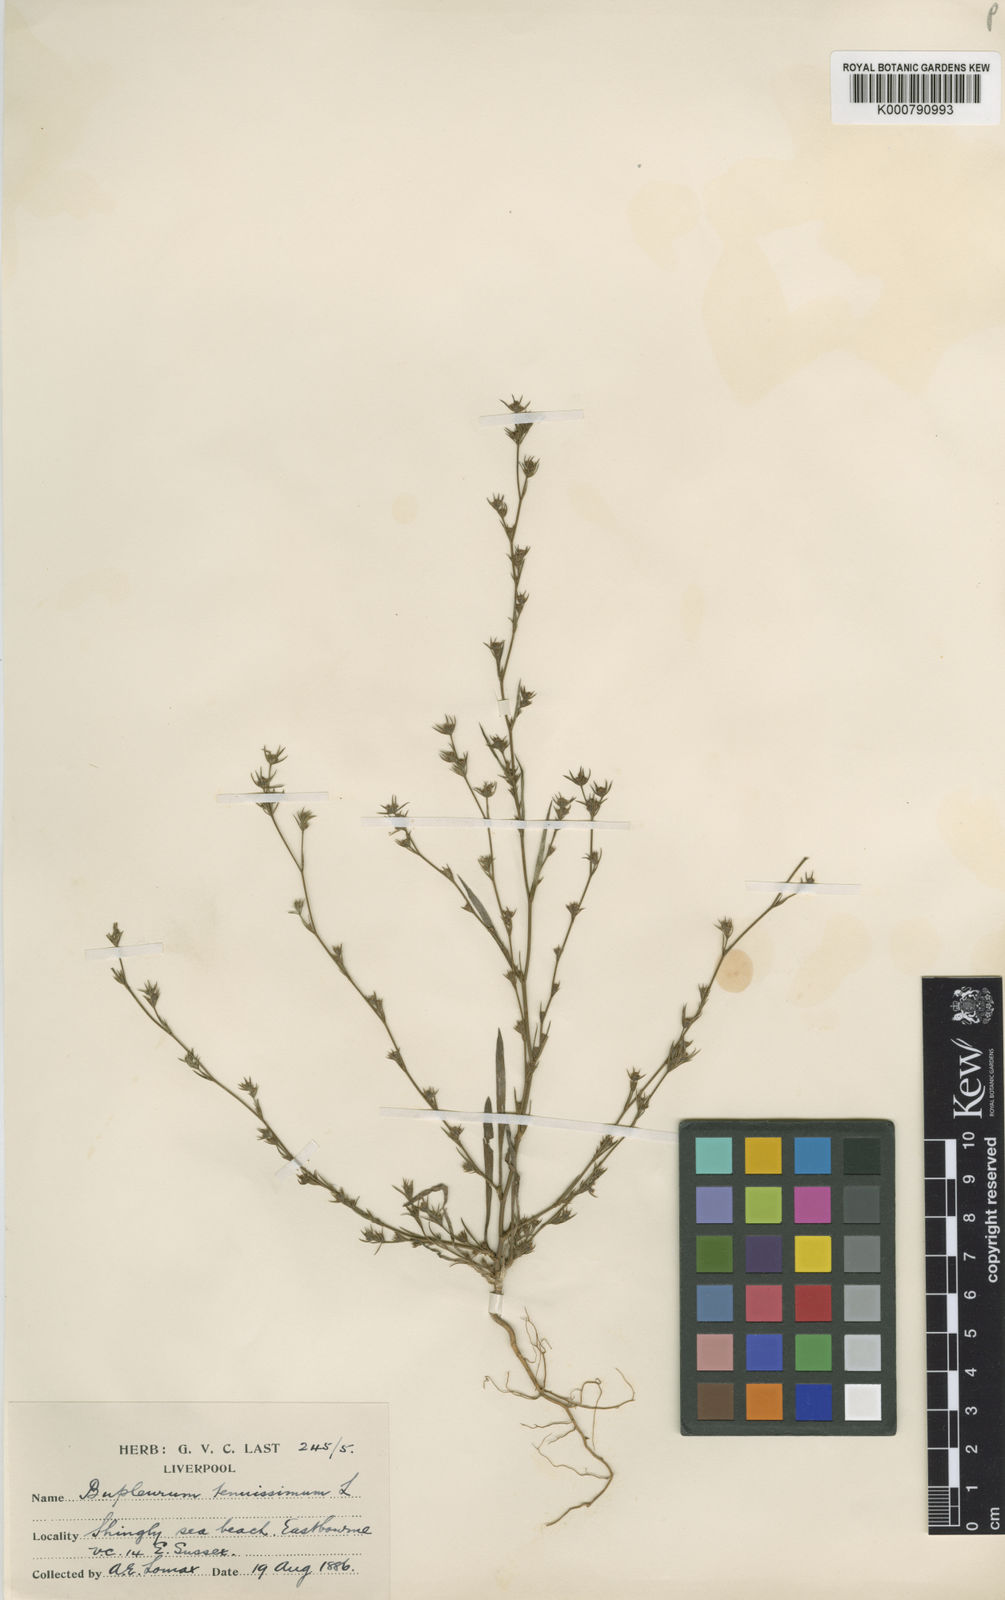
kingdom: Plantae
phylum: Tracheophyta
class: Magnoliopsida
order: Apiales
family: Apiaceae
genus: Bupleurum
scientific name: Bupleurum tenuissimum
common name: Slender hare's-ear
